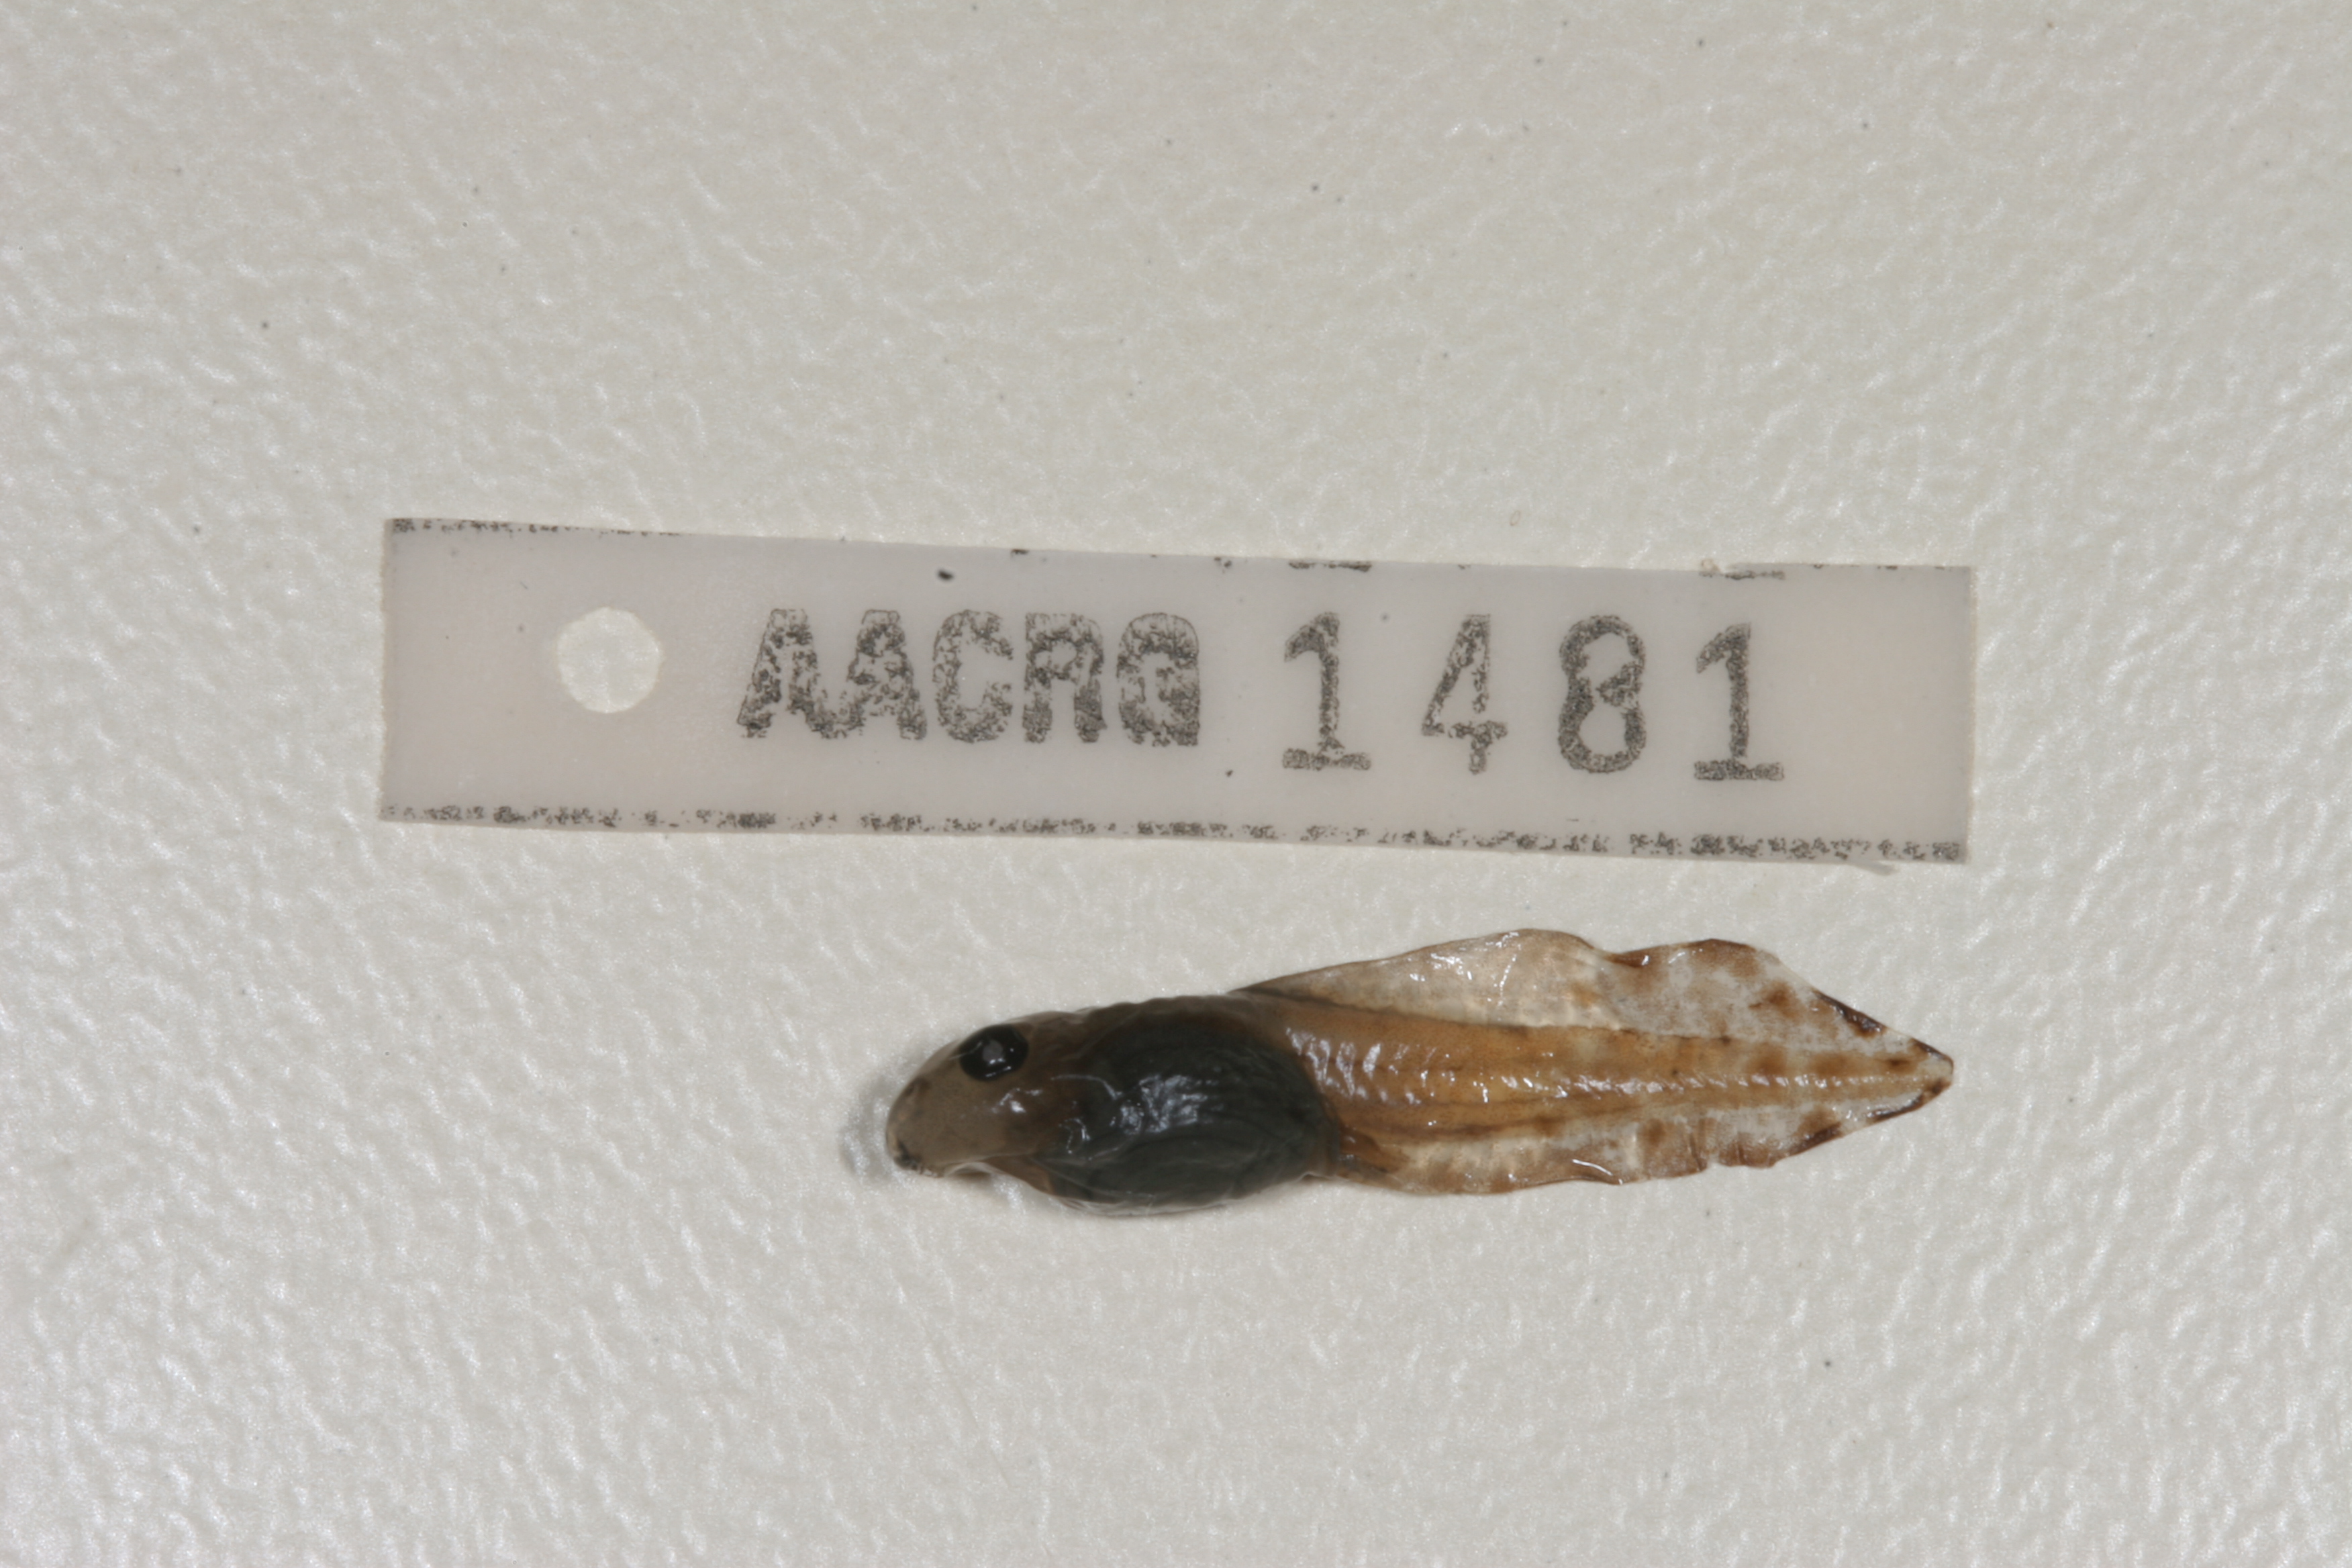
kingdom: Animalia
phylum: Chordata
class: Amphibia
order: Anura
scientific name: Anura
